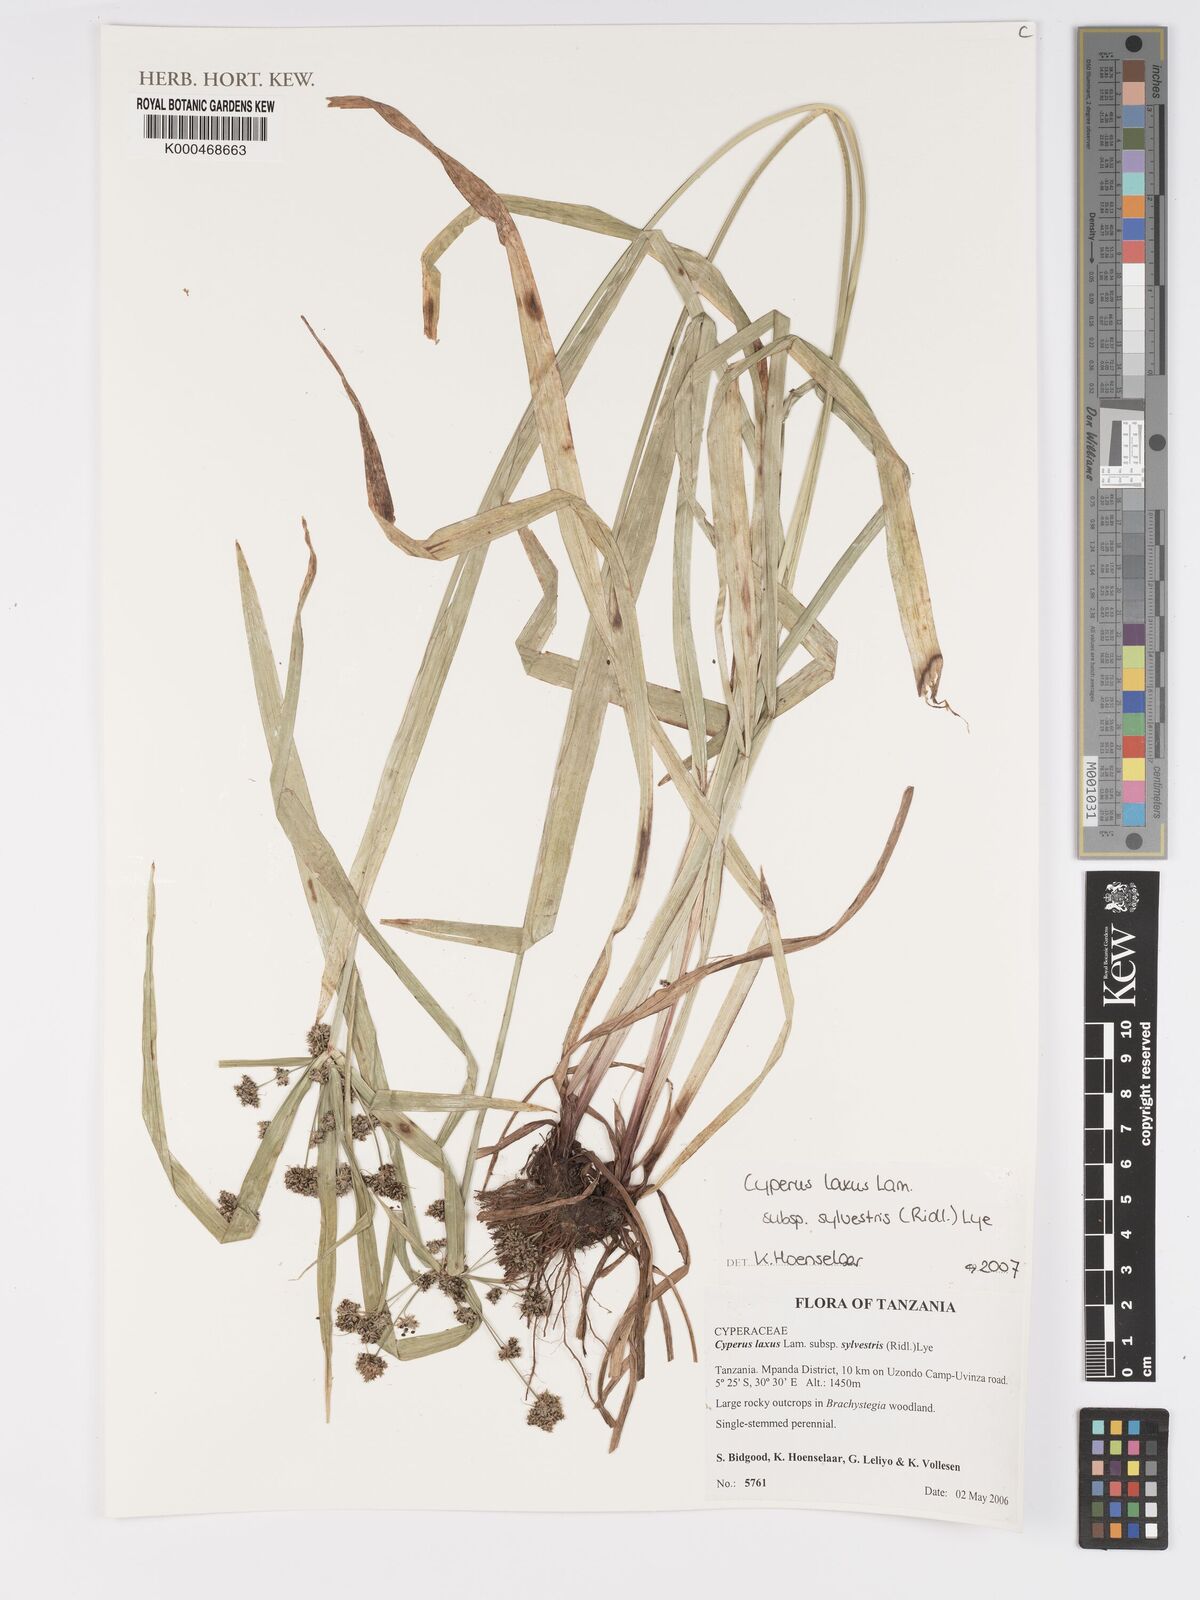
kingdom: Plantae
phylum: Tracheophyta
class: Liliopsida
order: Poales
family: Cyperaceae
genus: Cyperus
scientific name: Cyperus sylvestris
